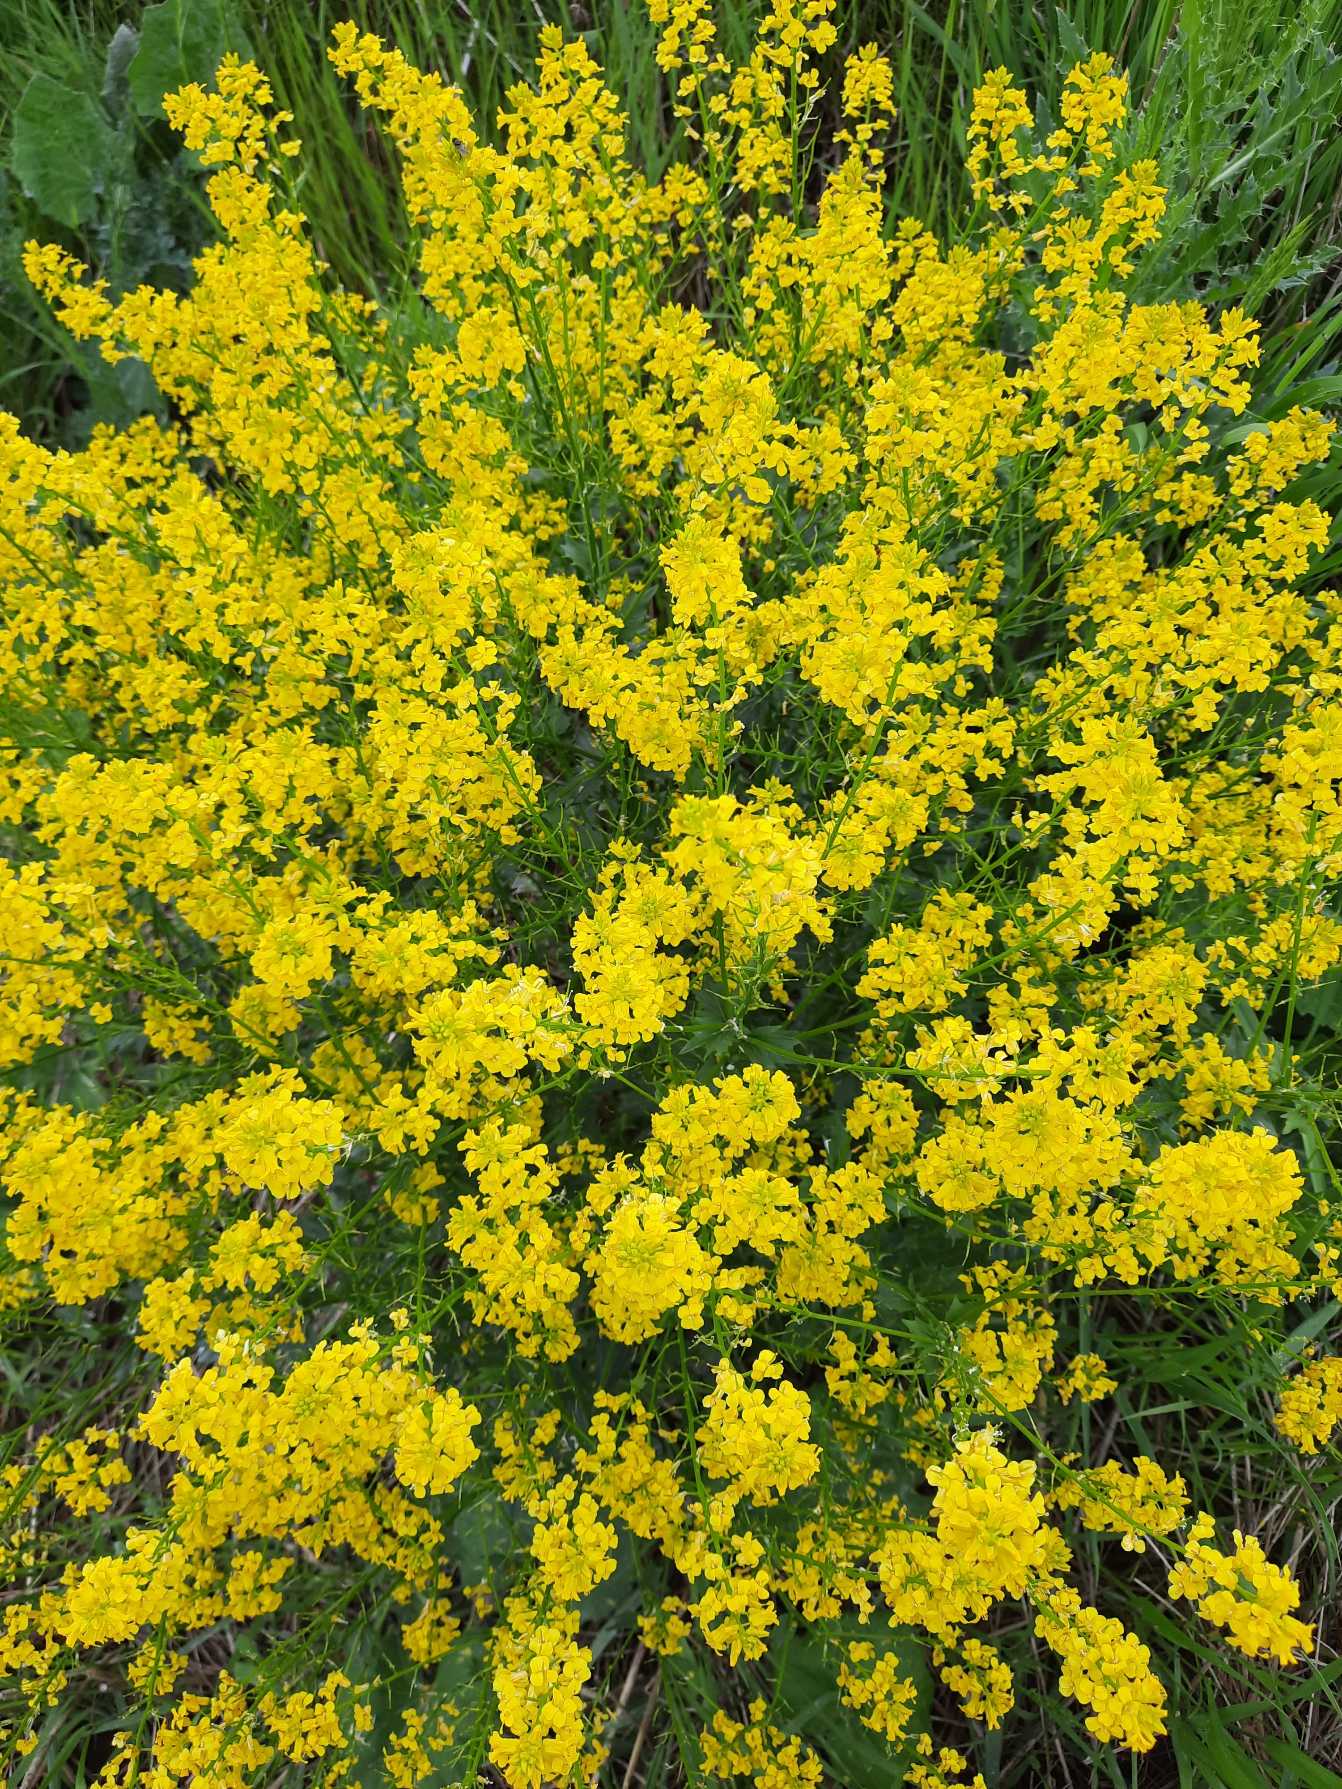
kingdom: Plantae
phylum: Tracheophyta
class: Magnoliopsida
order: Brassicales
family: Brassicaceae
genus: Barbarea
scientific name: Barbarea vulgaris
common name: Almindelig vinterkarse
